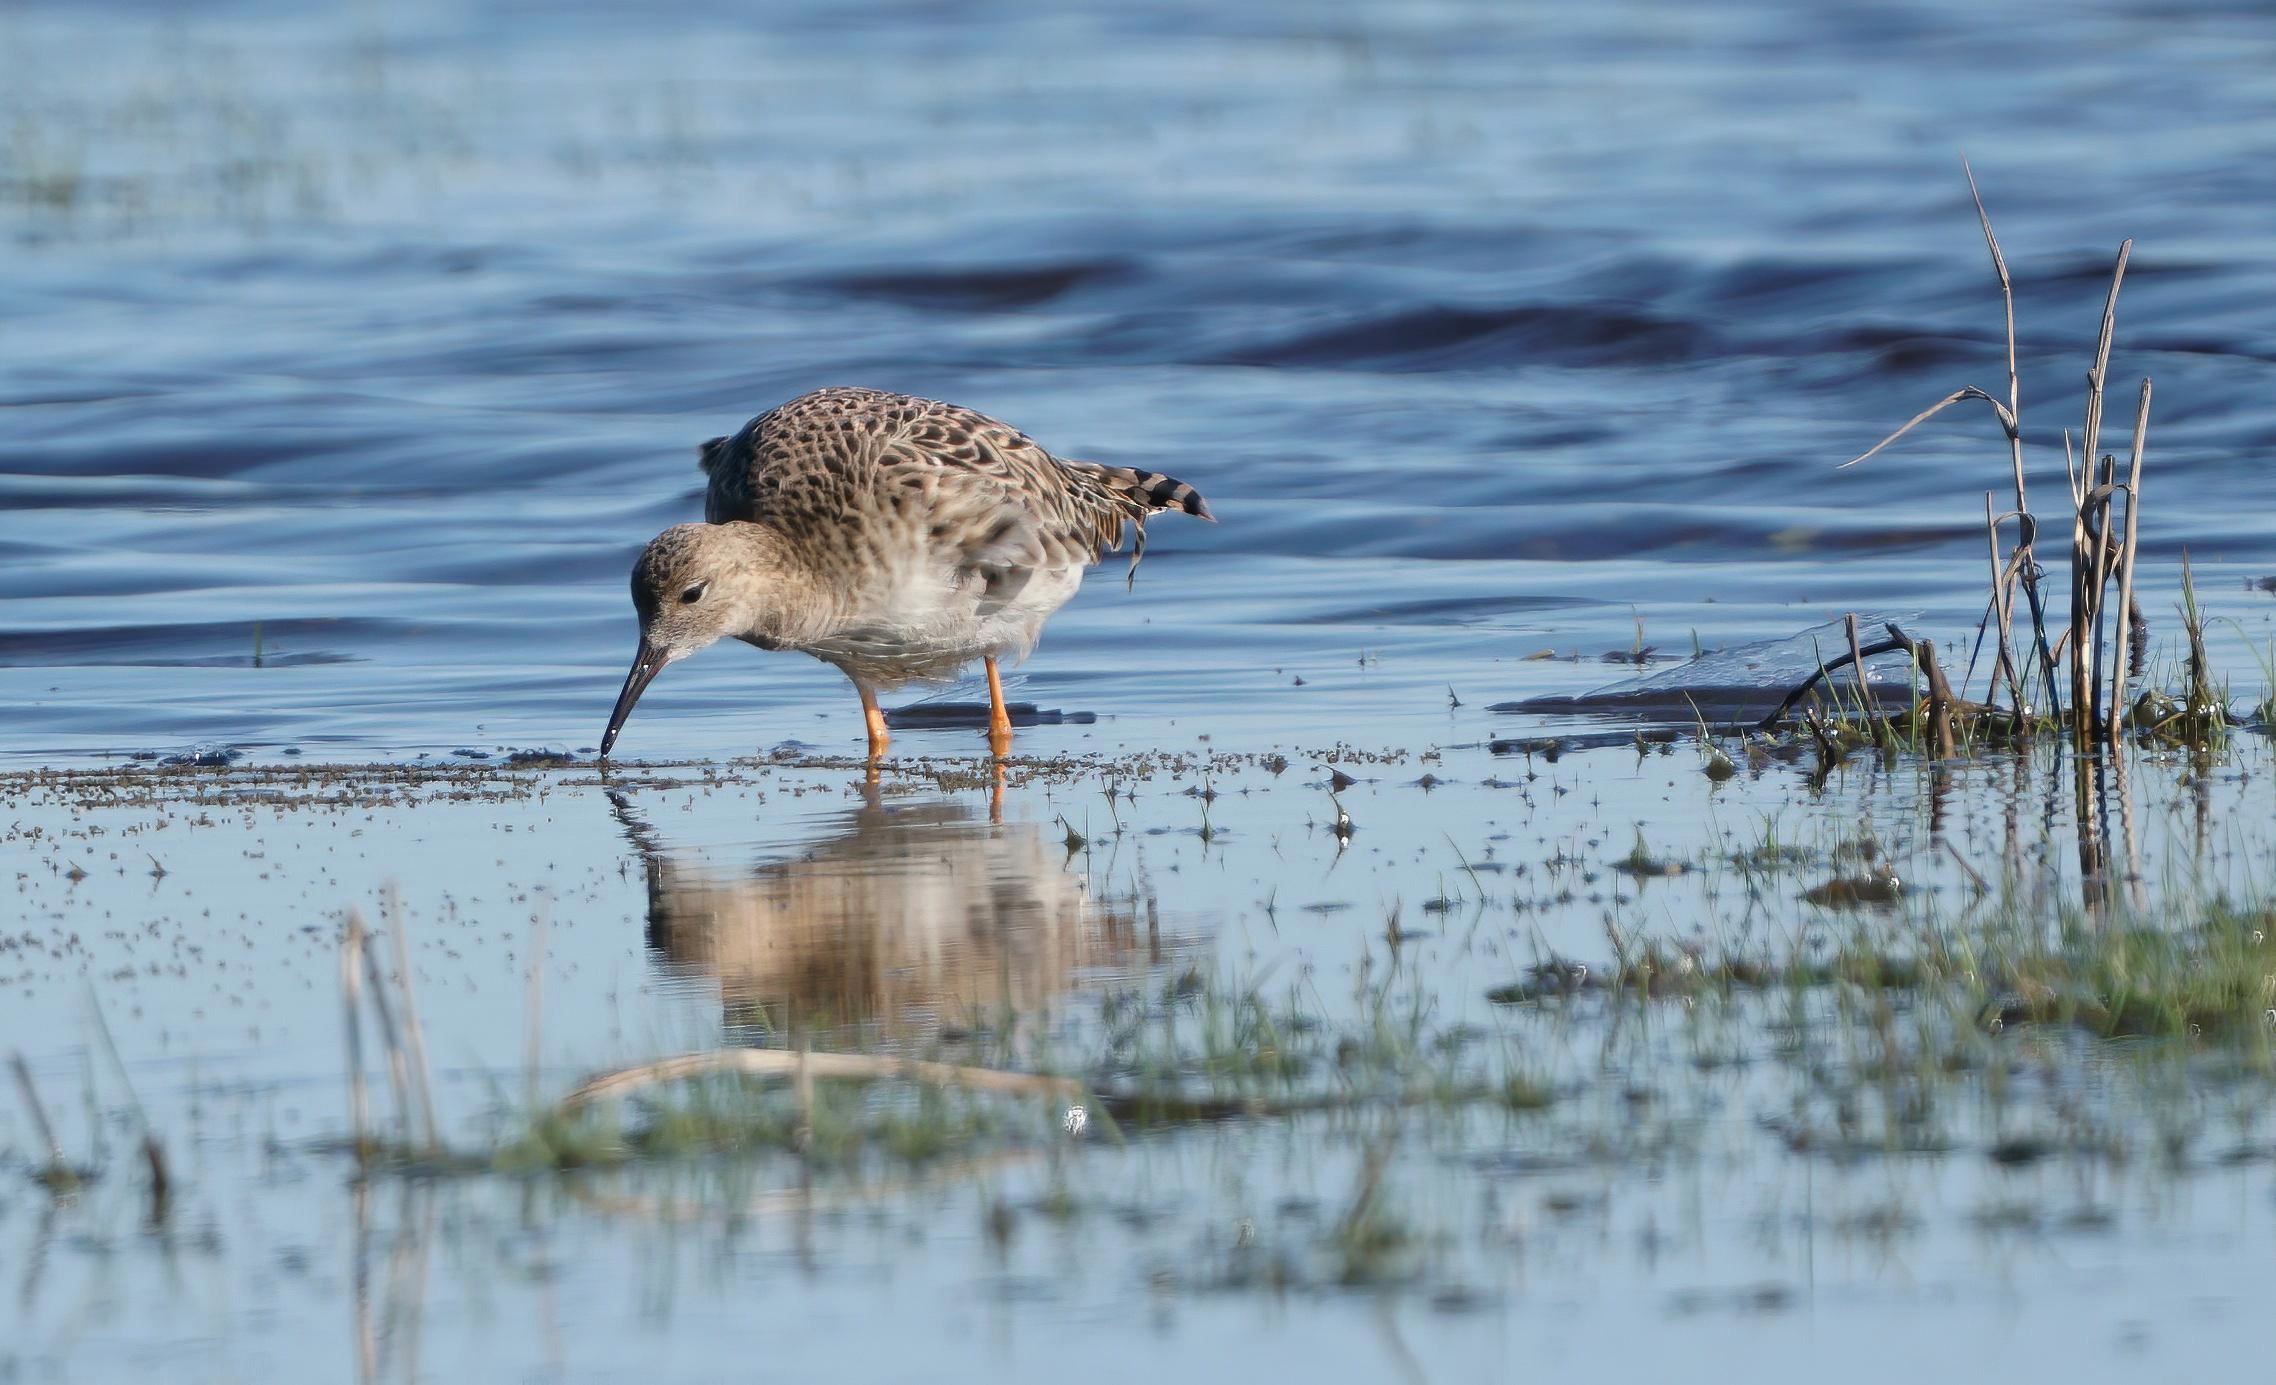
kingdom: Animalia
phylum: Chordata
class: Aves
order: Charadriiformes
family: Scolopacidae
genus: Calidris
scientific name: Calidris pugnax
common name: Brushane
